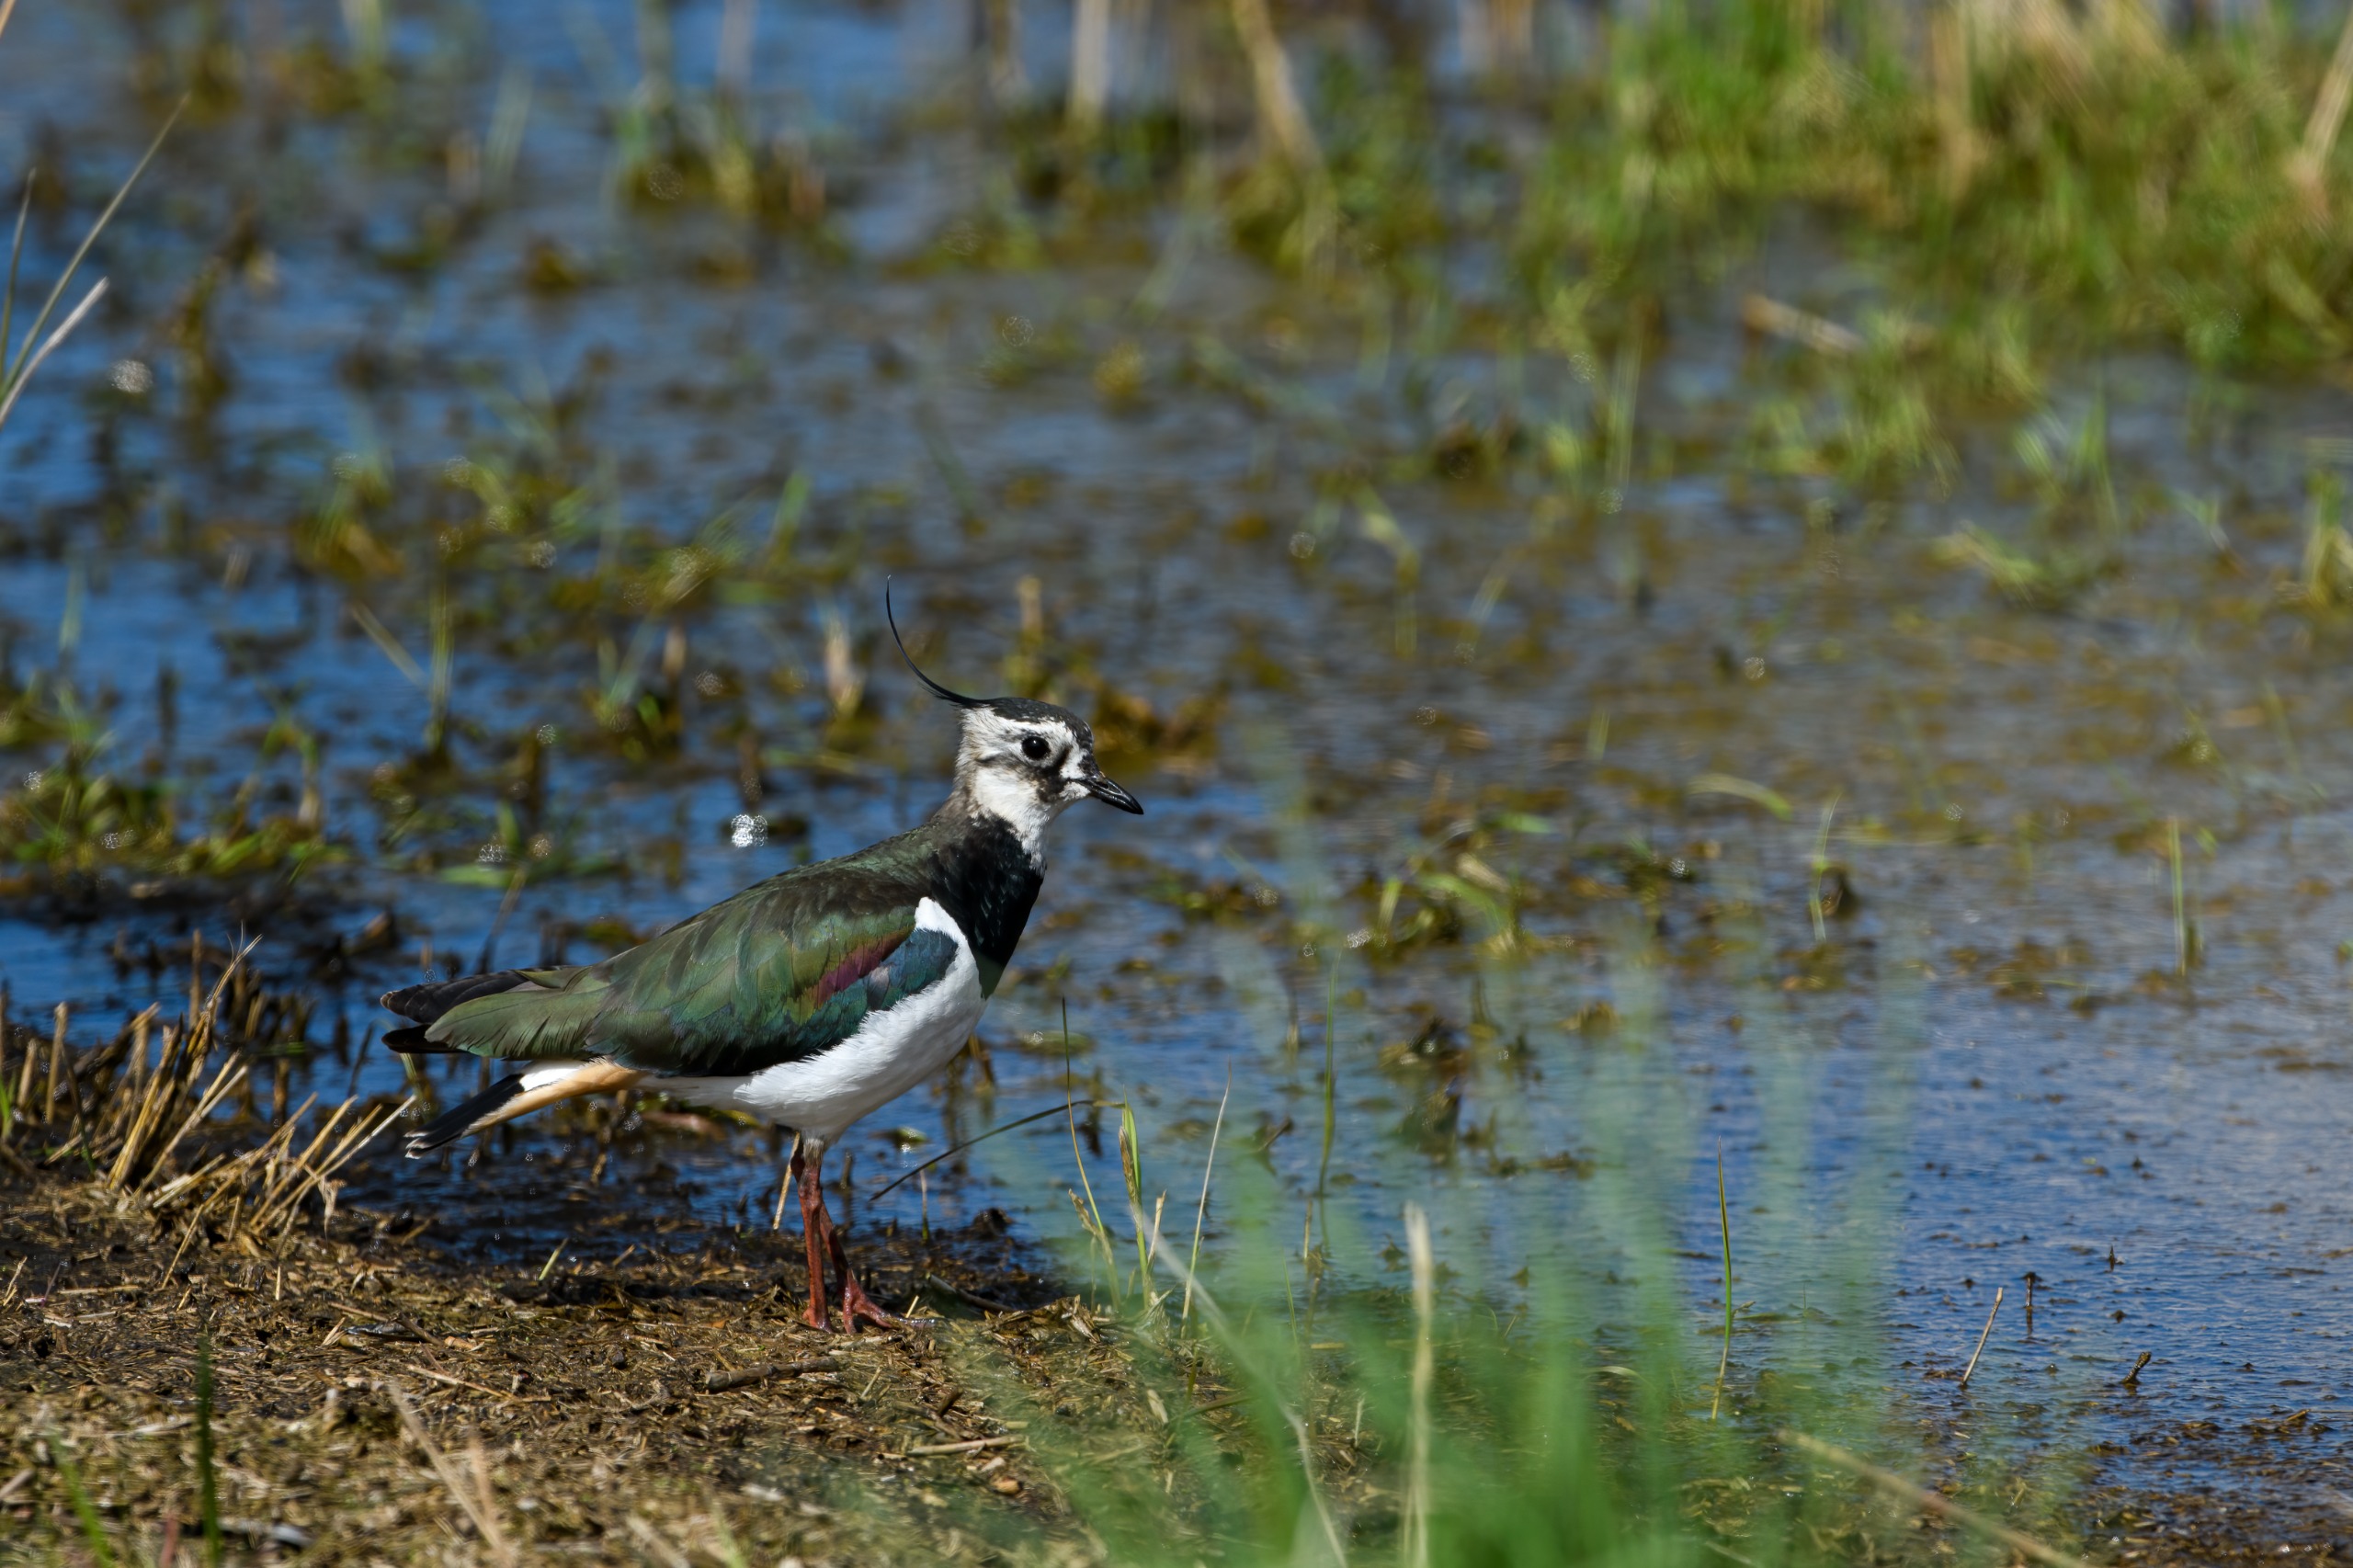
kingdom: Animalia
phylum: Chordata
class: Aves
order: Charadriiformes
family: Charadriidae
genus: Vanellus
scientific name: Vanellus vanellus
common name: Vibe
